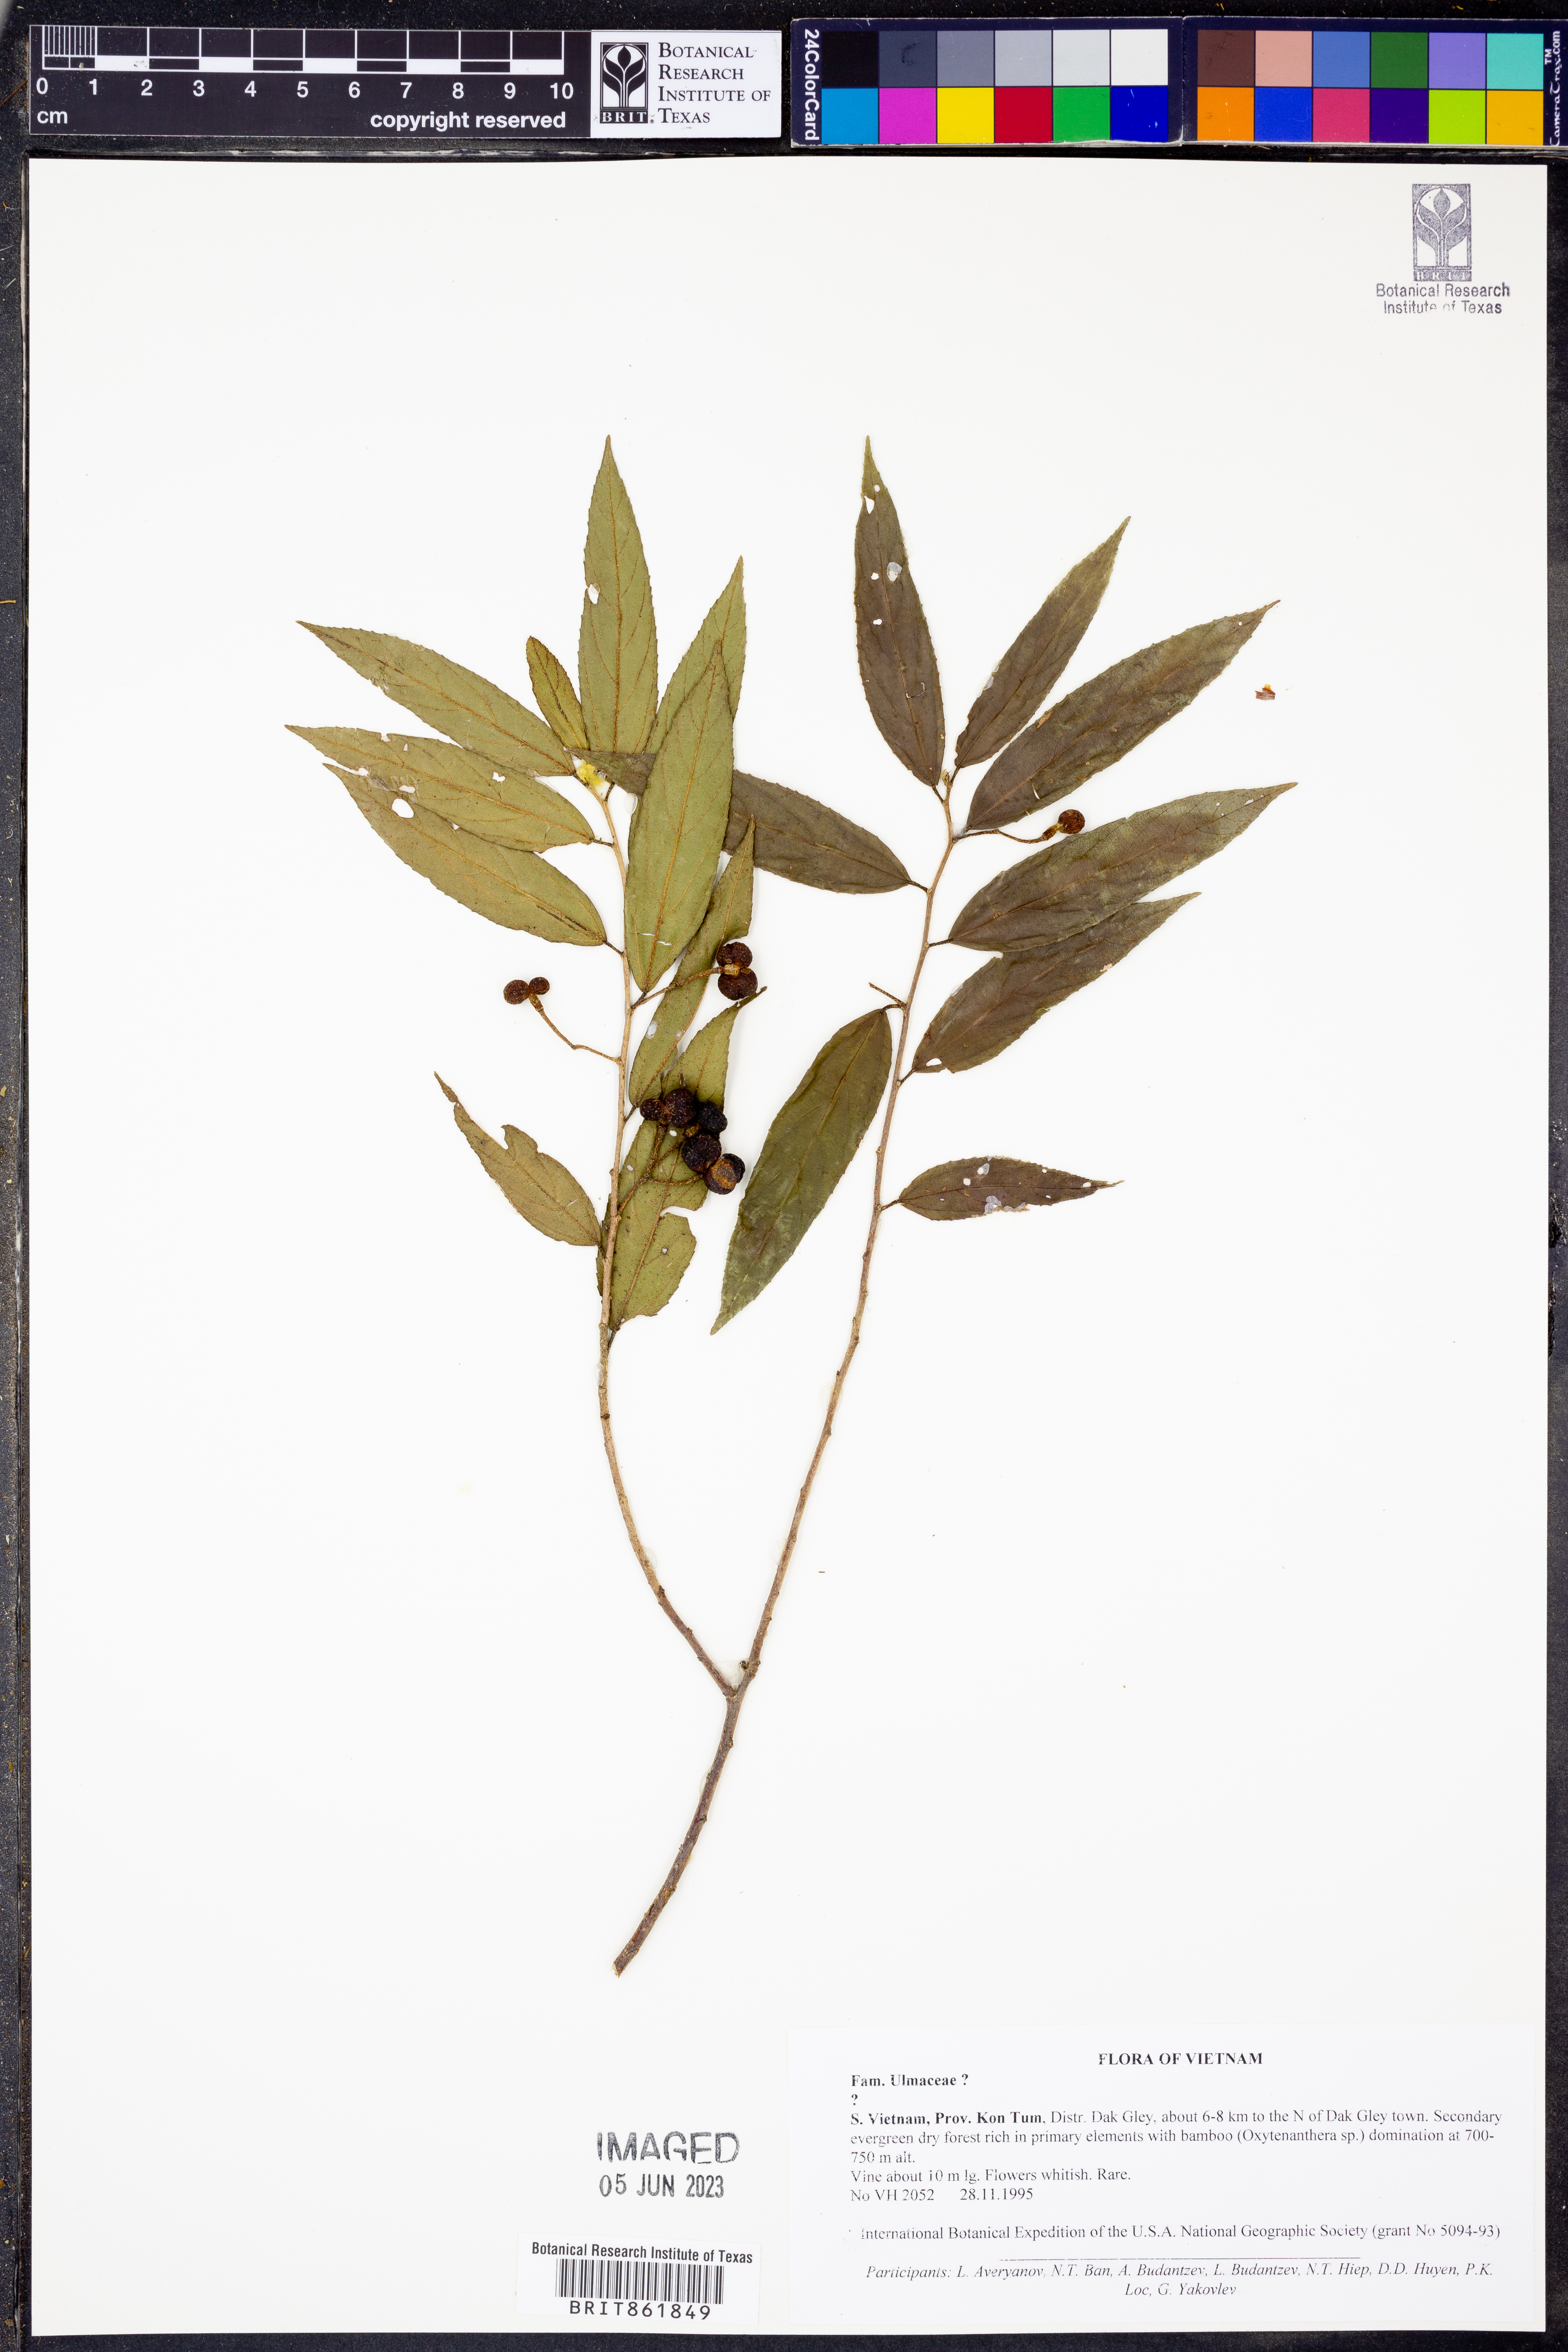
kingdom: Plantae
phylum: Tracheophyta
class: Magnoliopsida
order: Rosales
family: Ulmaceae
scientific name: Ulmaceae
